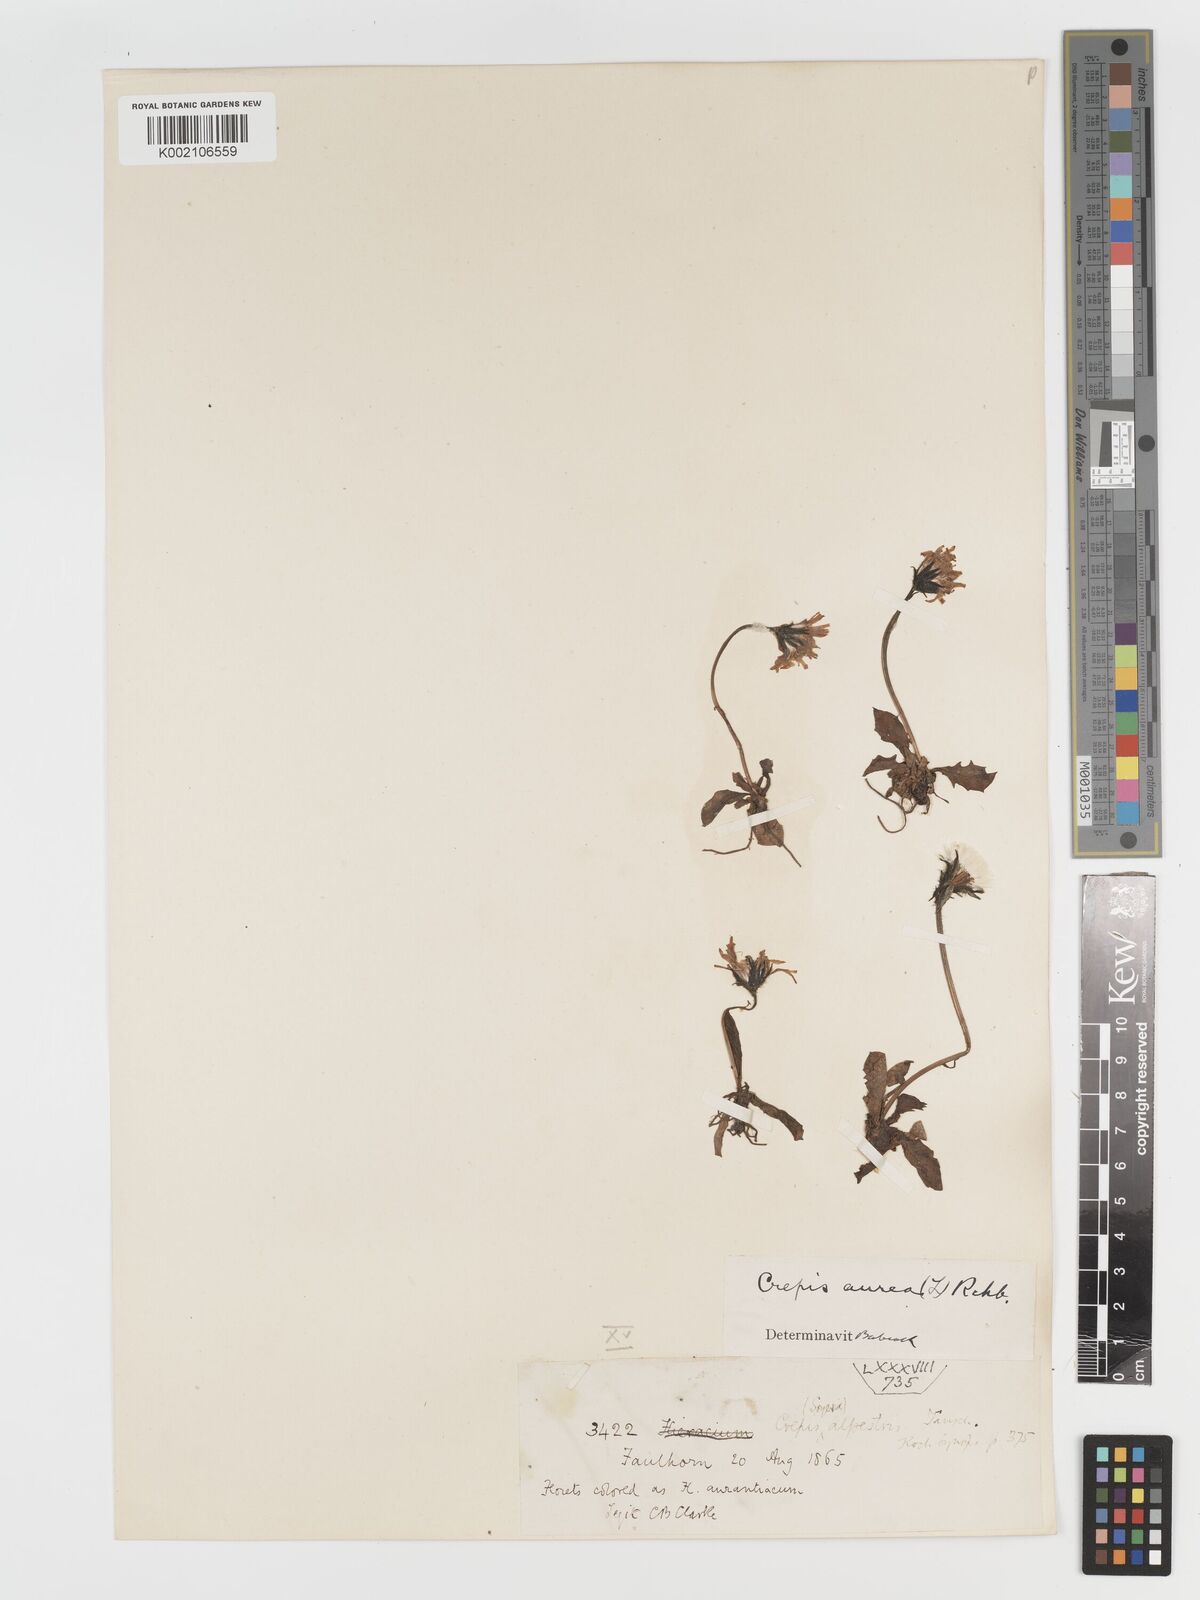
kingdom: Plantae
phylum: Tracheophyta
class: Magnoliopsida
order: Asterales
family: Asteraceae
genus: Crepis
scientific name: Crepis aurea
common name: Golden hawk's-beard
